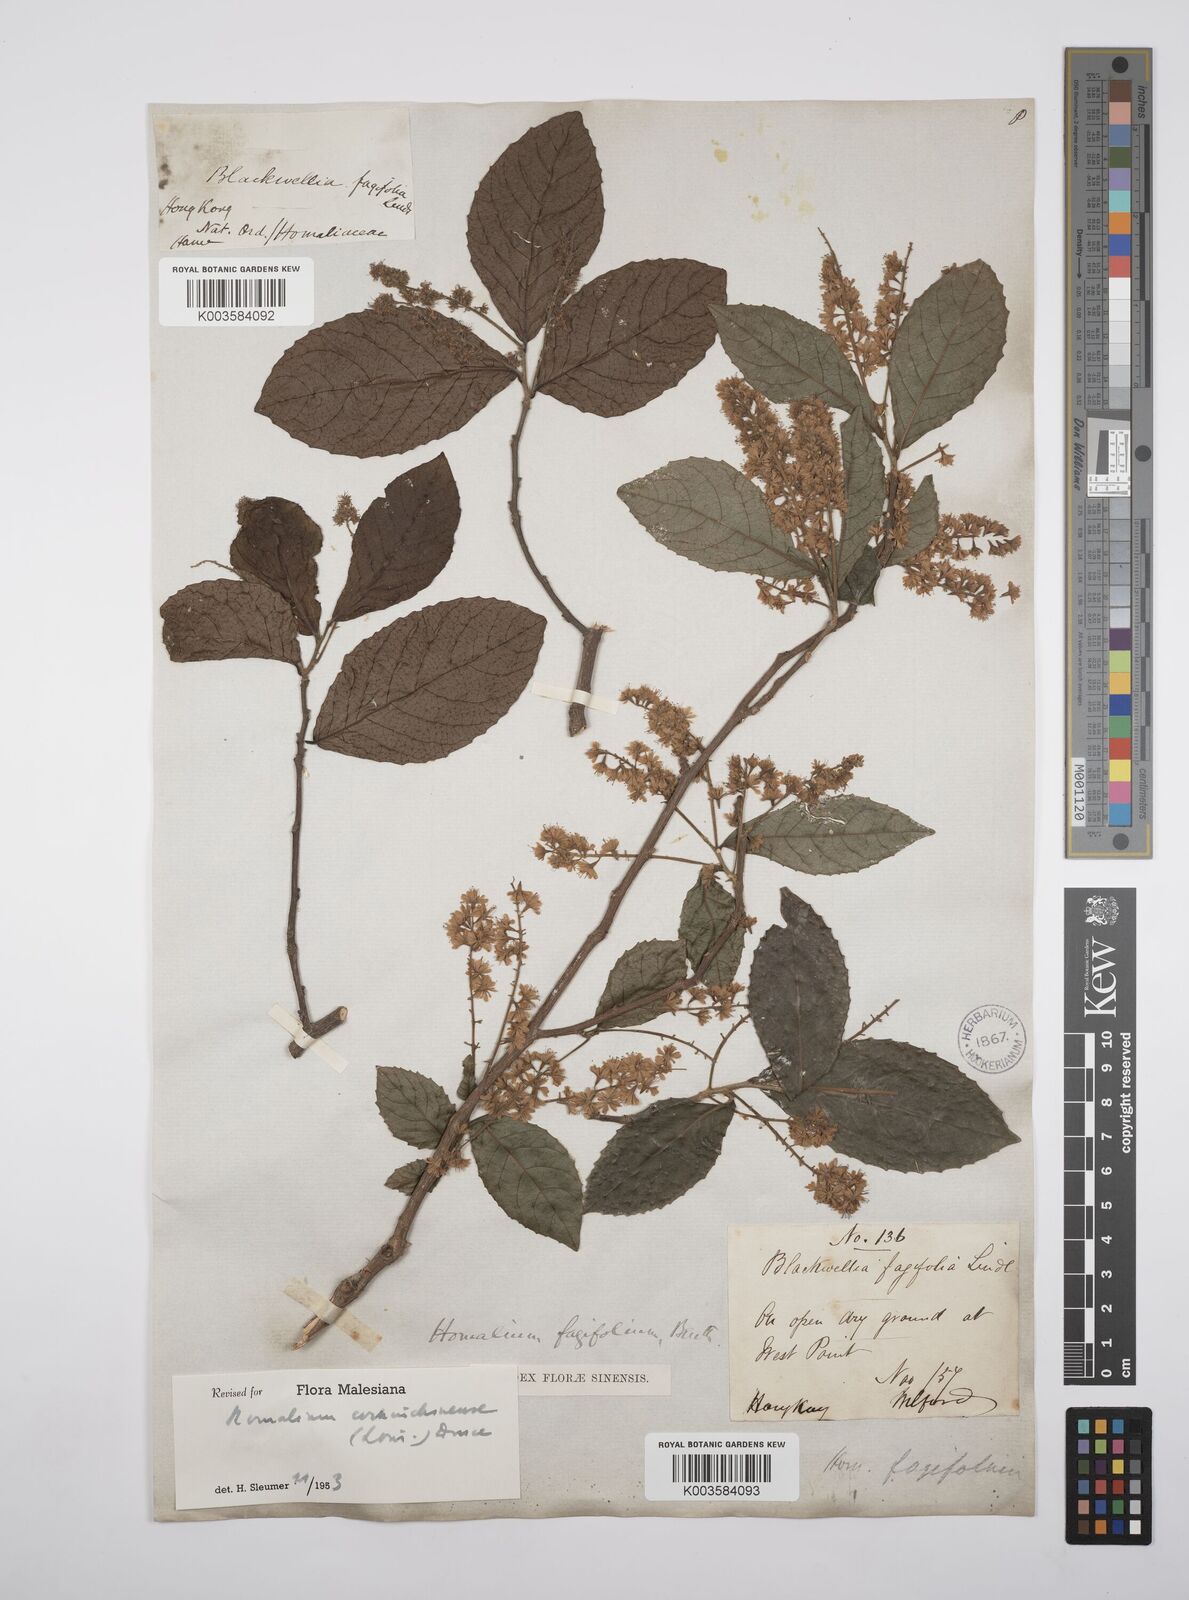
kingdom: Plantae
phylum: Tracheophyta
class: Magnoliopsida
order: Malpighiales
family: Salicaceae
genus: Homalium
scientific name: Homalium cochinchinensis
